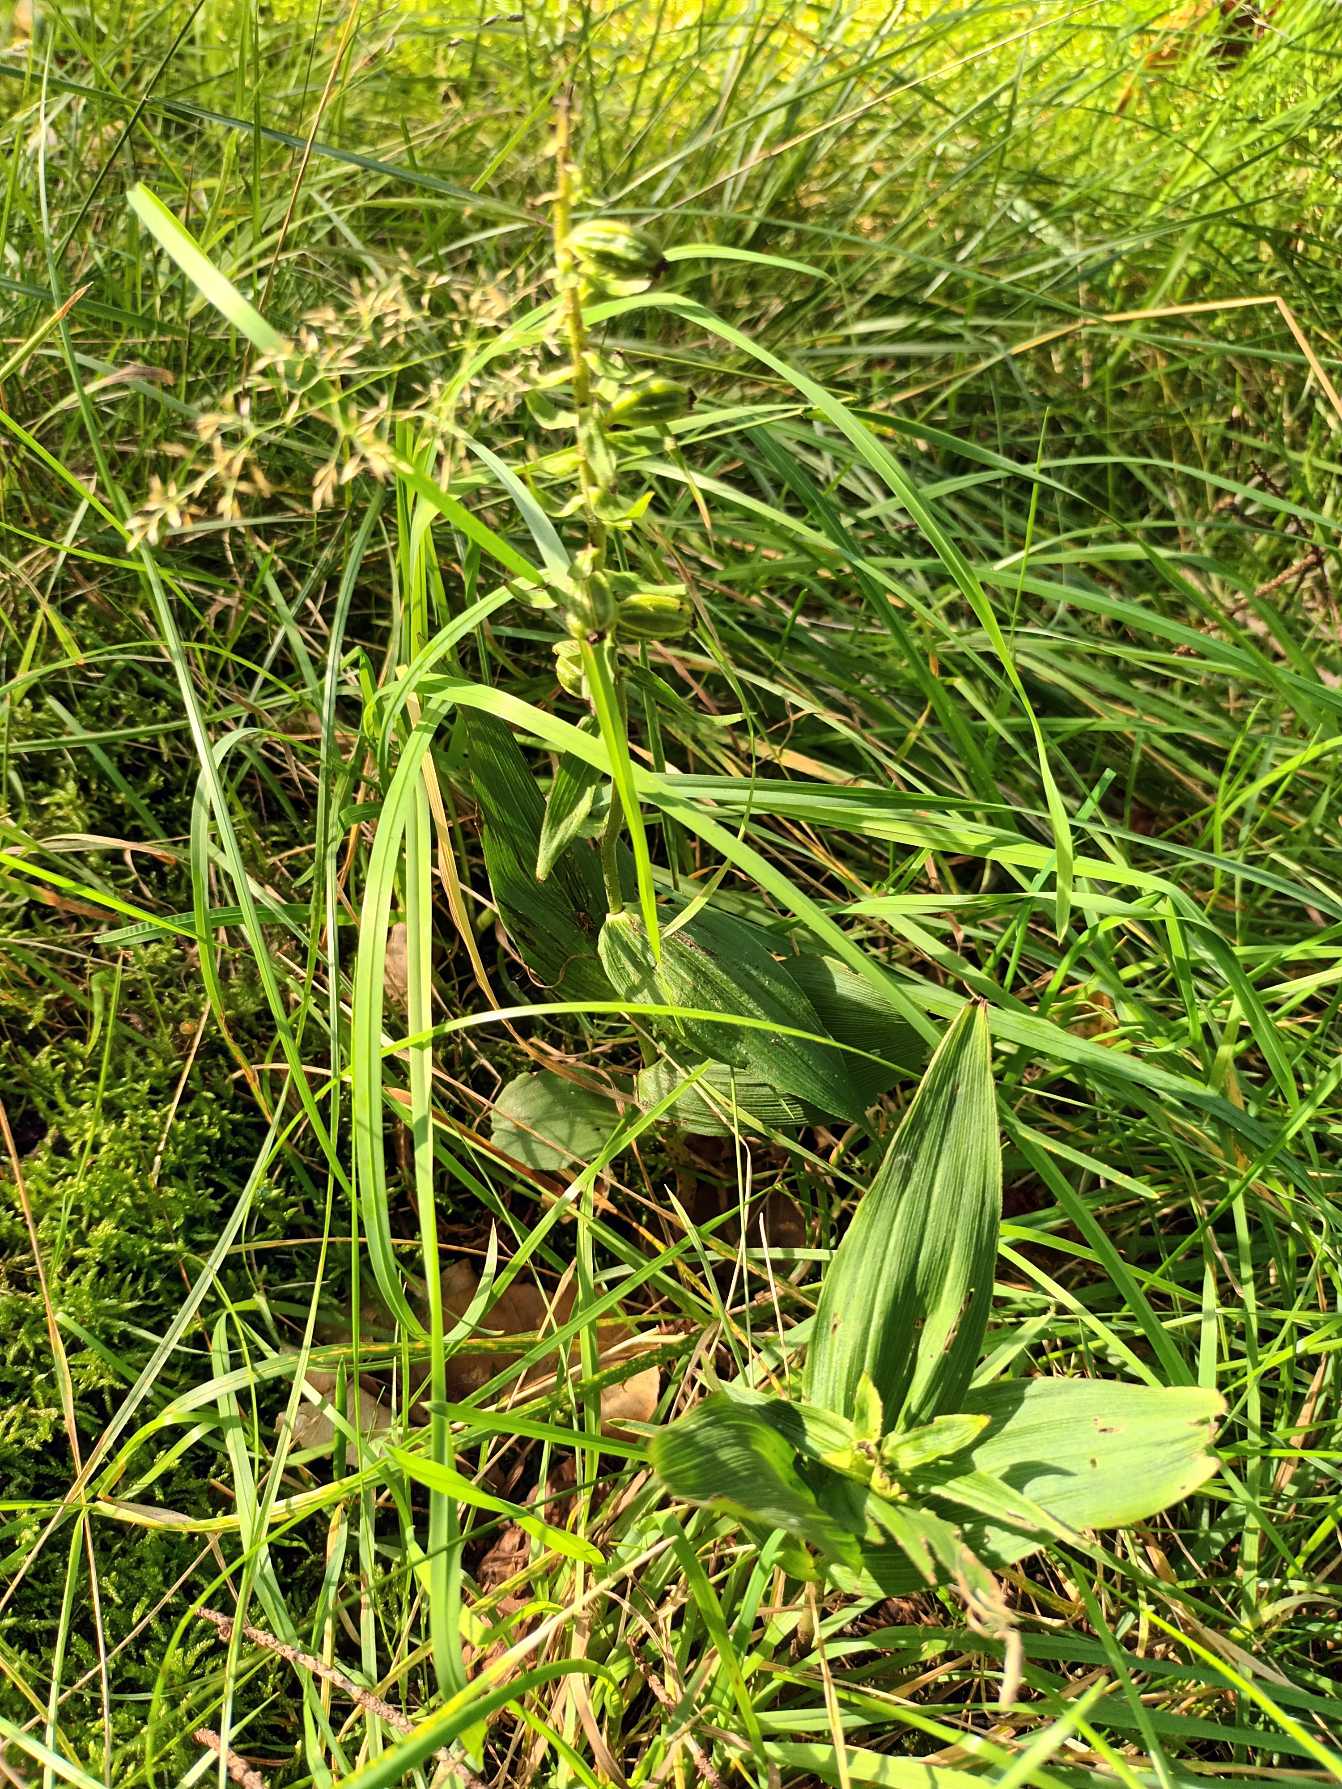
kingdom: Plantae
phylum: Tracheophyta
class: Liliopsida
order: Asparagales
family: Orchidaceae
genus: Epipactis
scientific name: Epipactis helleborine
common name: Skov-hullæbe
